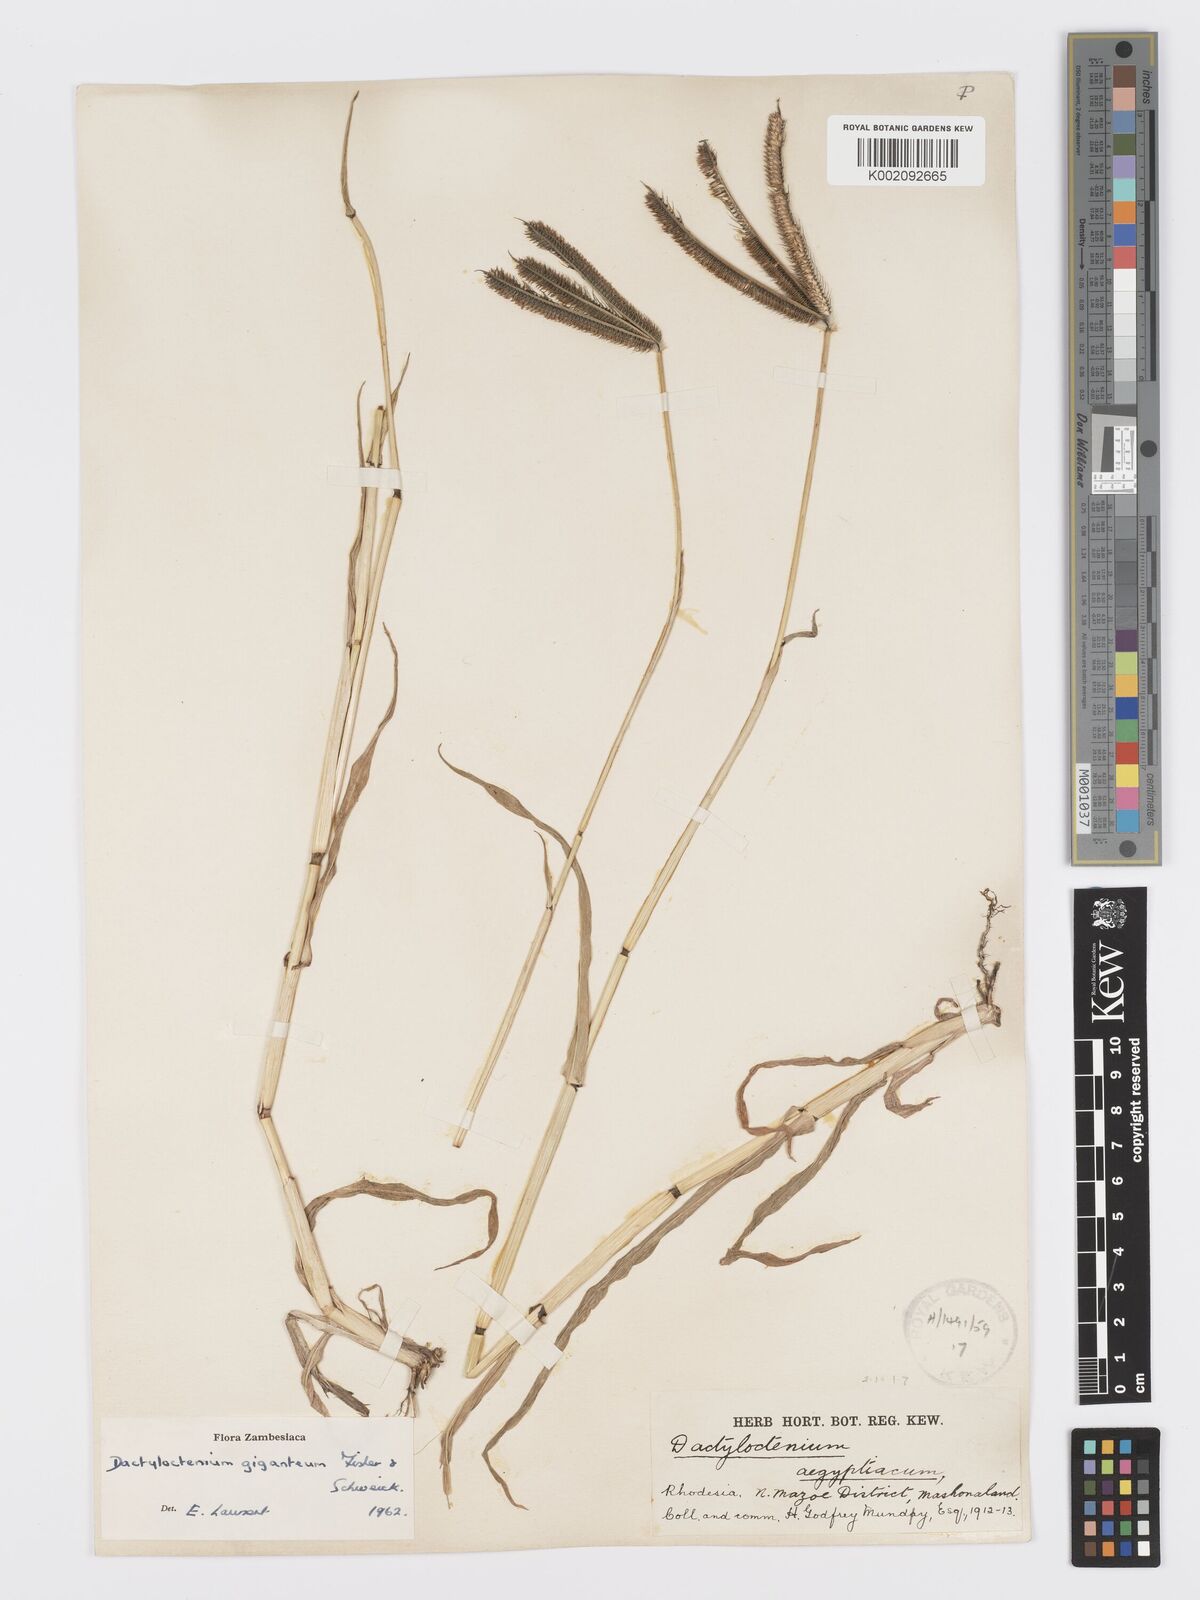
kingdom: Plantae
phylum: Tracheophyta
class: Liliopsida
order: Poales
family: Poaceae
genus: Dactyloctenium
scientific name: Dactyloctenium giganteum
